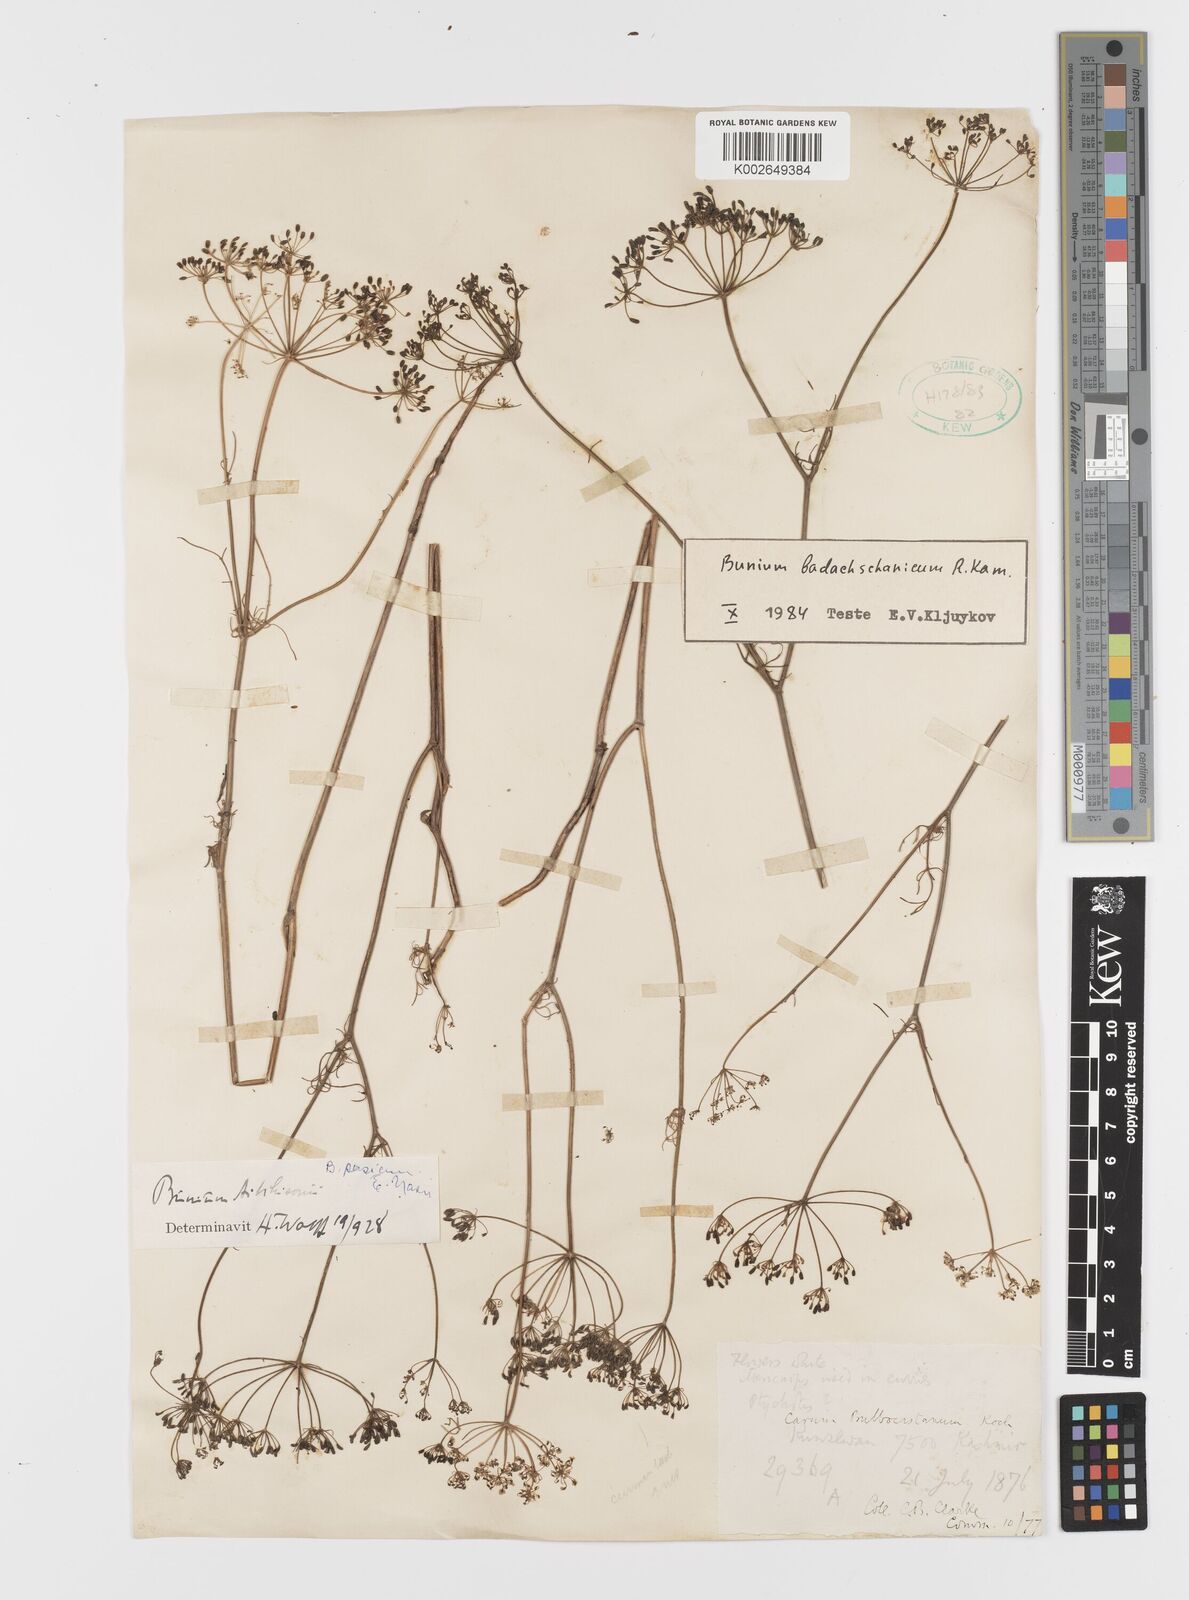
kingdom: Plantae
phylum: Tracheophyta
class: Magnoliopsida
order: Apiales
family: Apiaceae
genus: Elwendia
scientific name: Elwendia badachschanica
